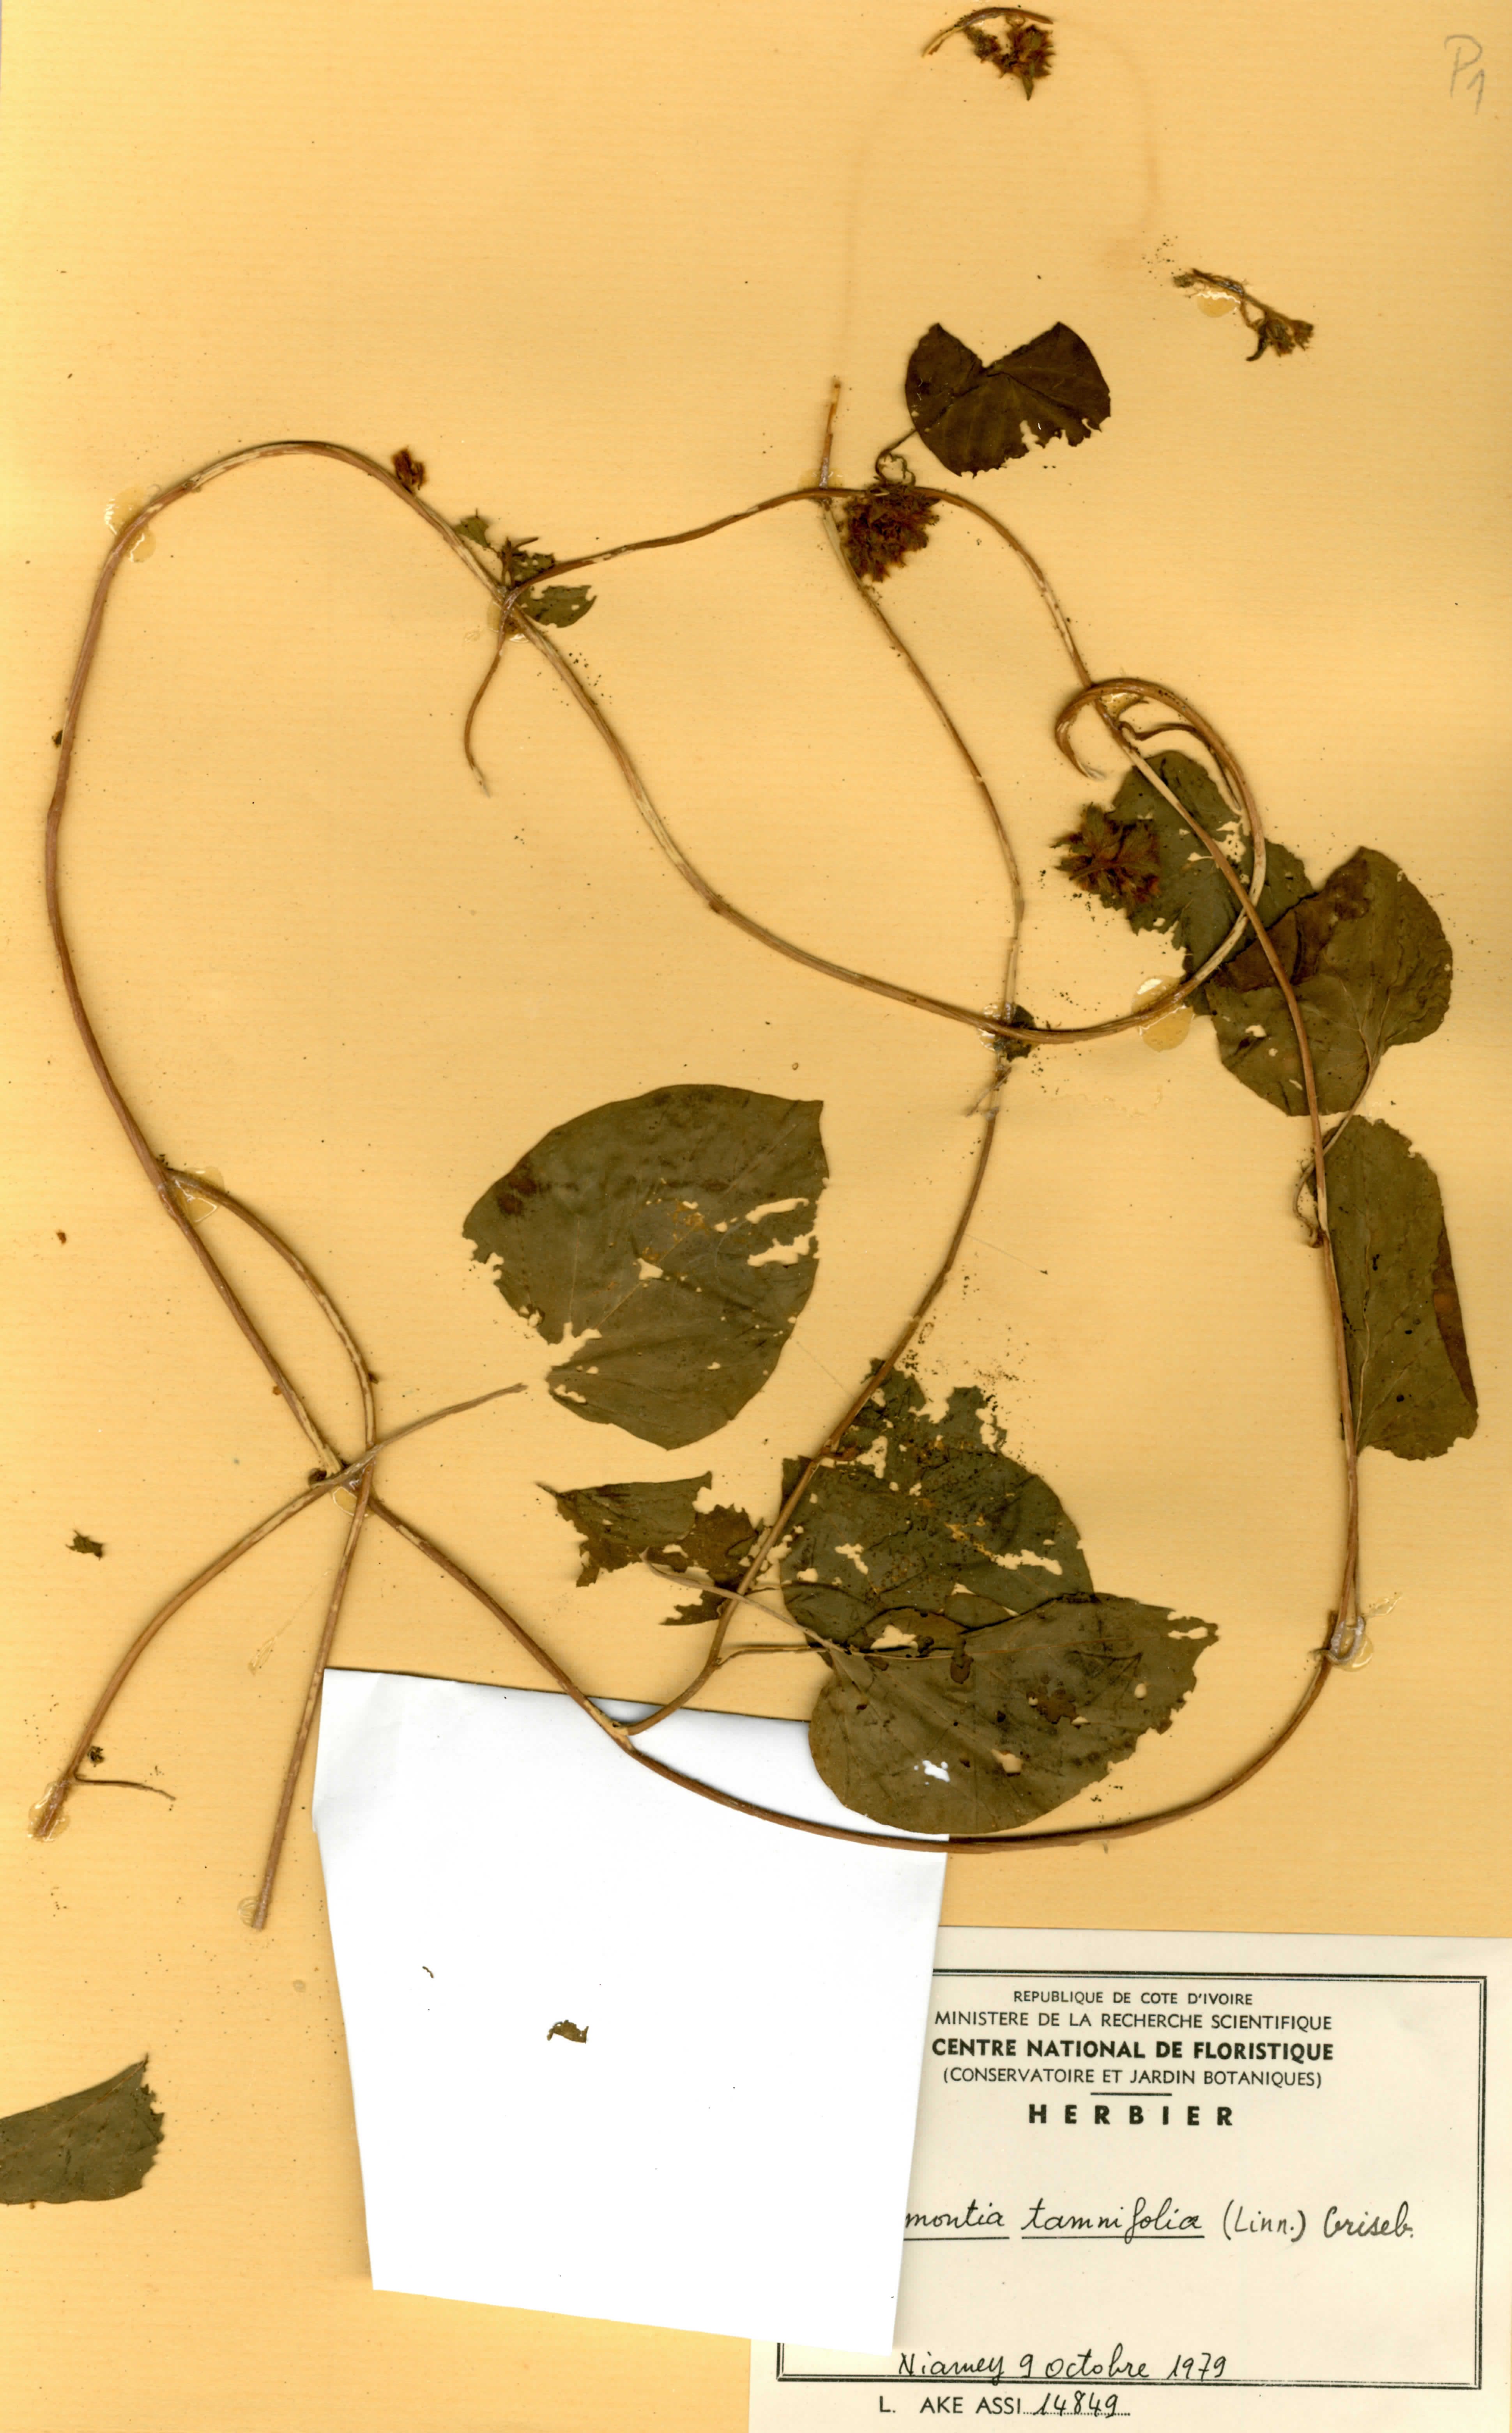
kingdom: Plantae
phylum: Tracheophyta
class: Magnoliopsida
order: Solanales
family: Convolvulaceae
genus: Jacquemontia
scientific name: Jacquemontia tamnifolia
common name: Hairy clustervine
